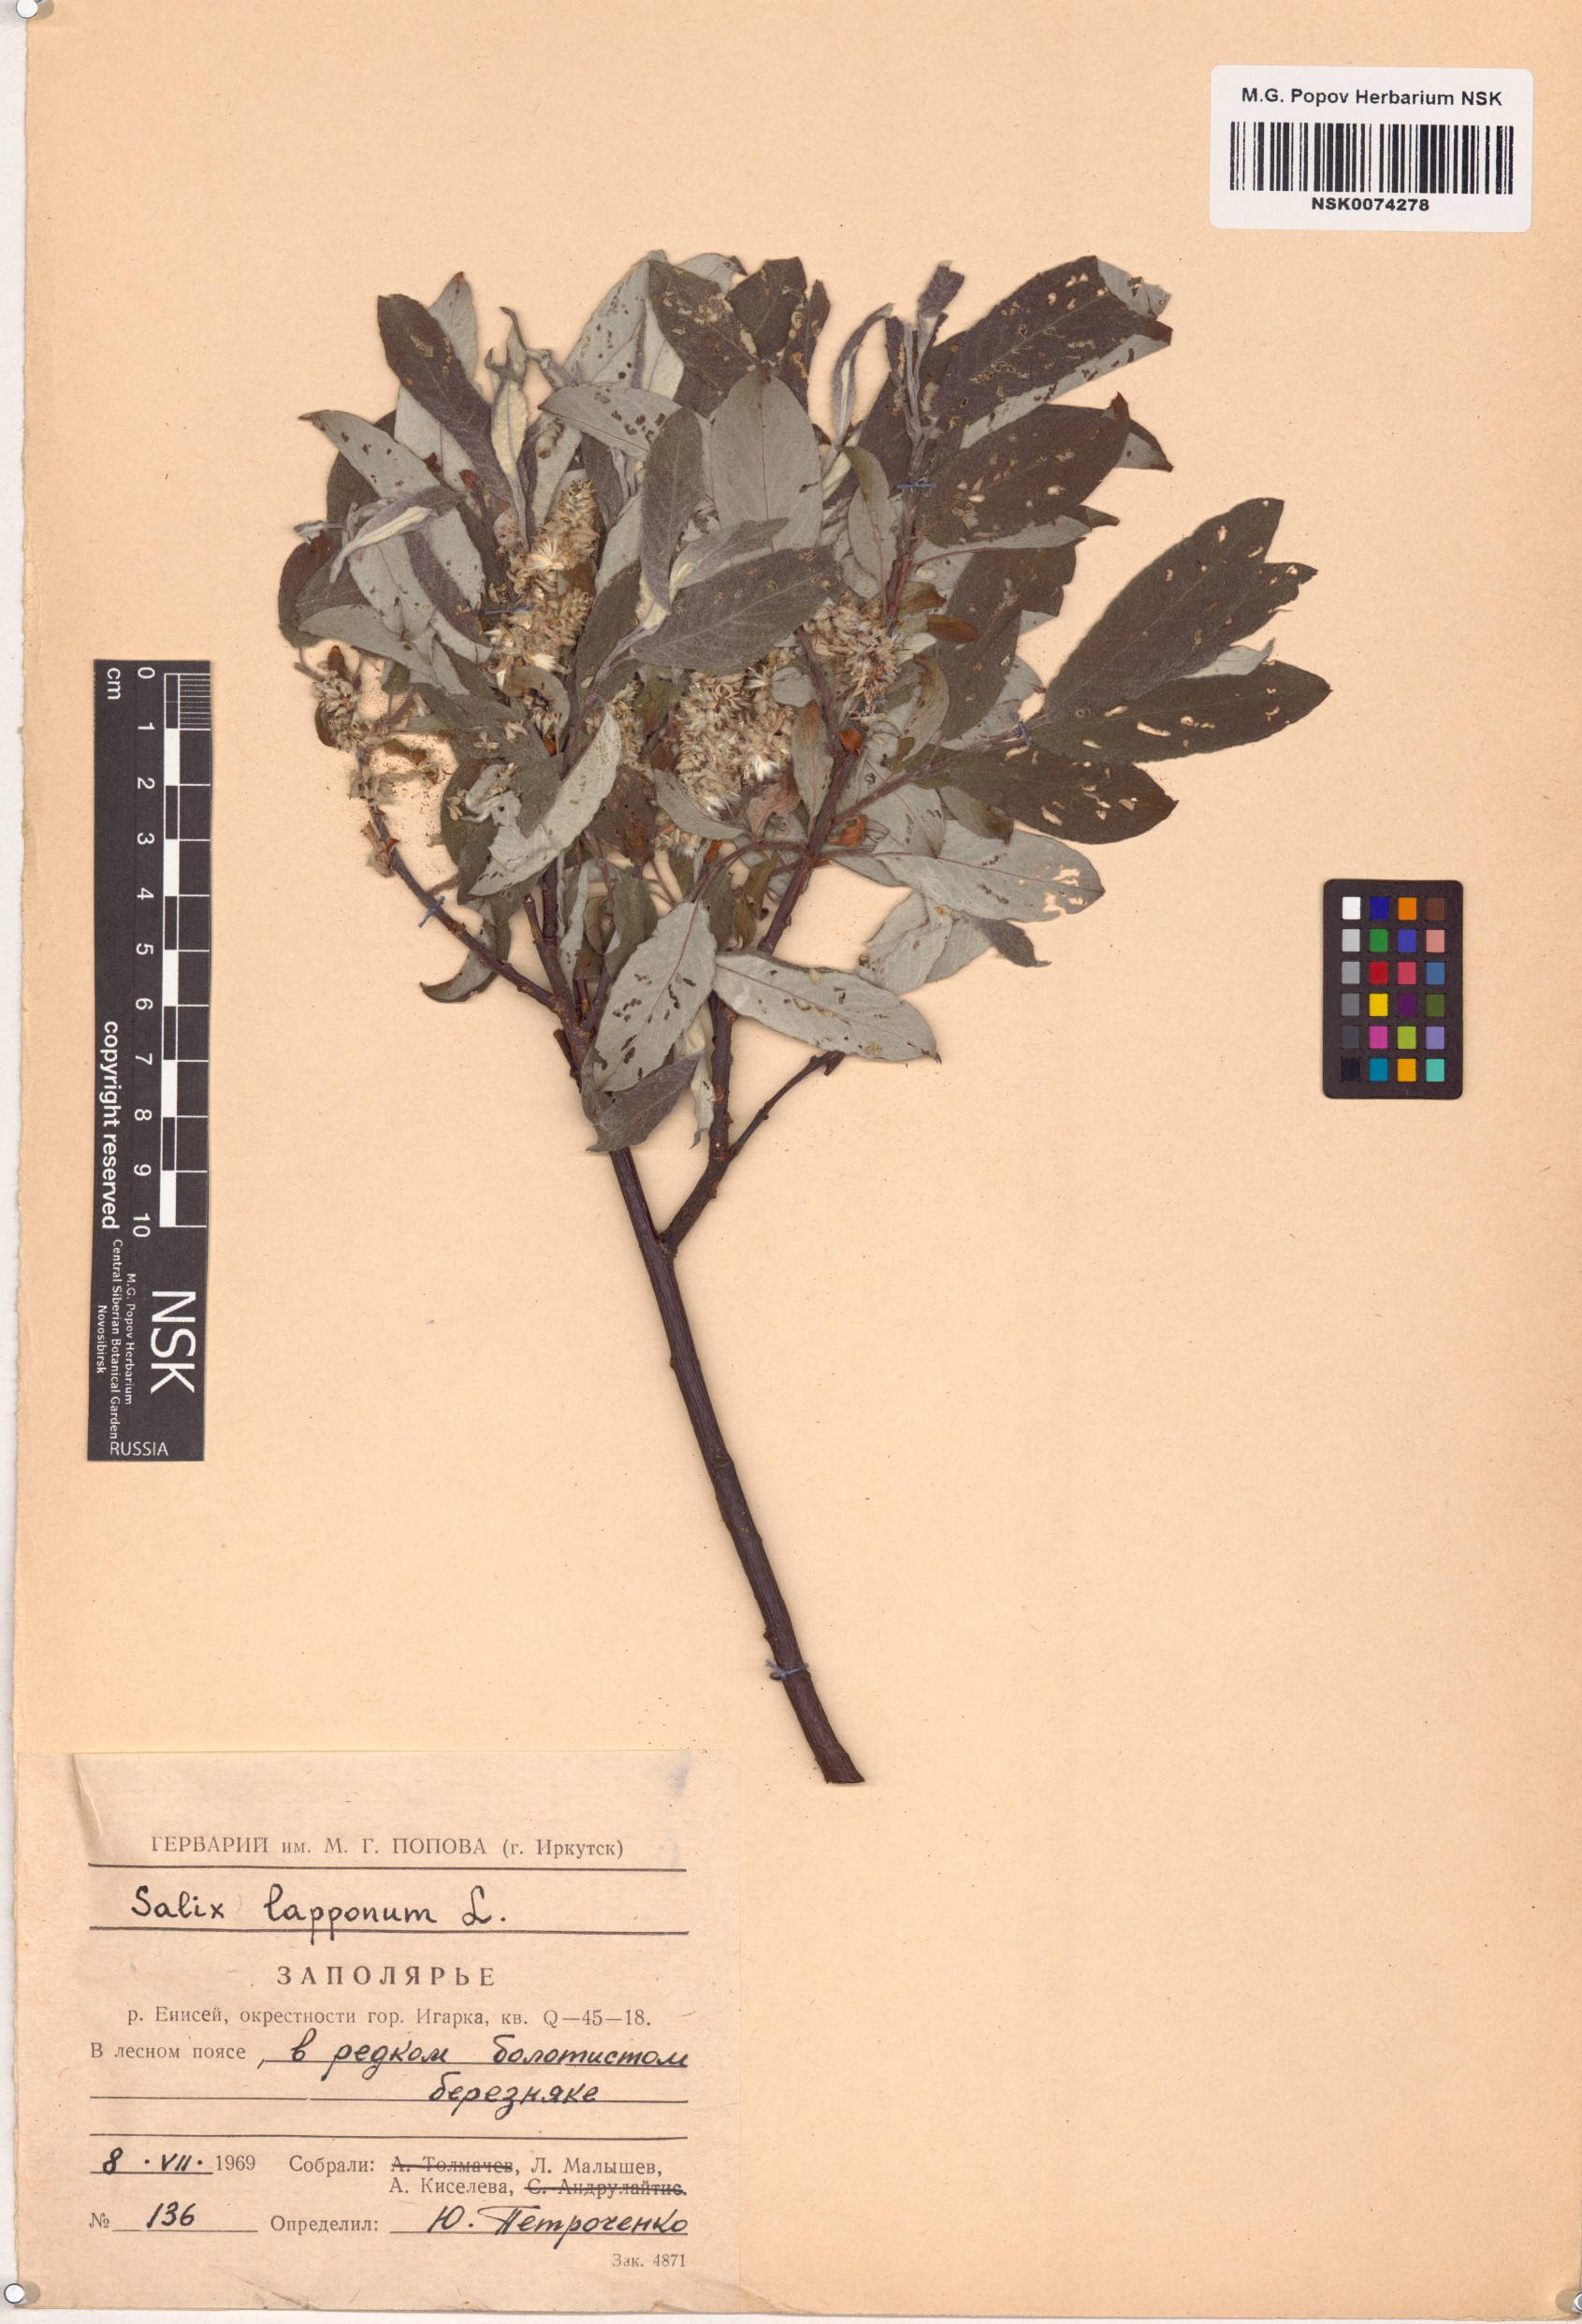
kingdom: Plantae
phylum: Tracheophyta
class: Magnoliopsida
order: Malpighiales
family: Salicaceae
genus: Salix
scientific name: Salix lapponum
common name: Downy willow
